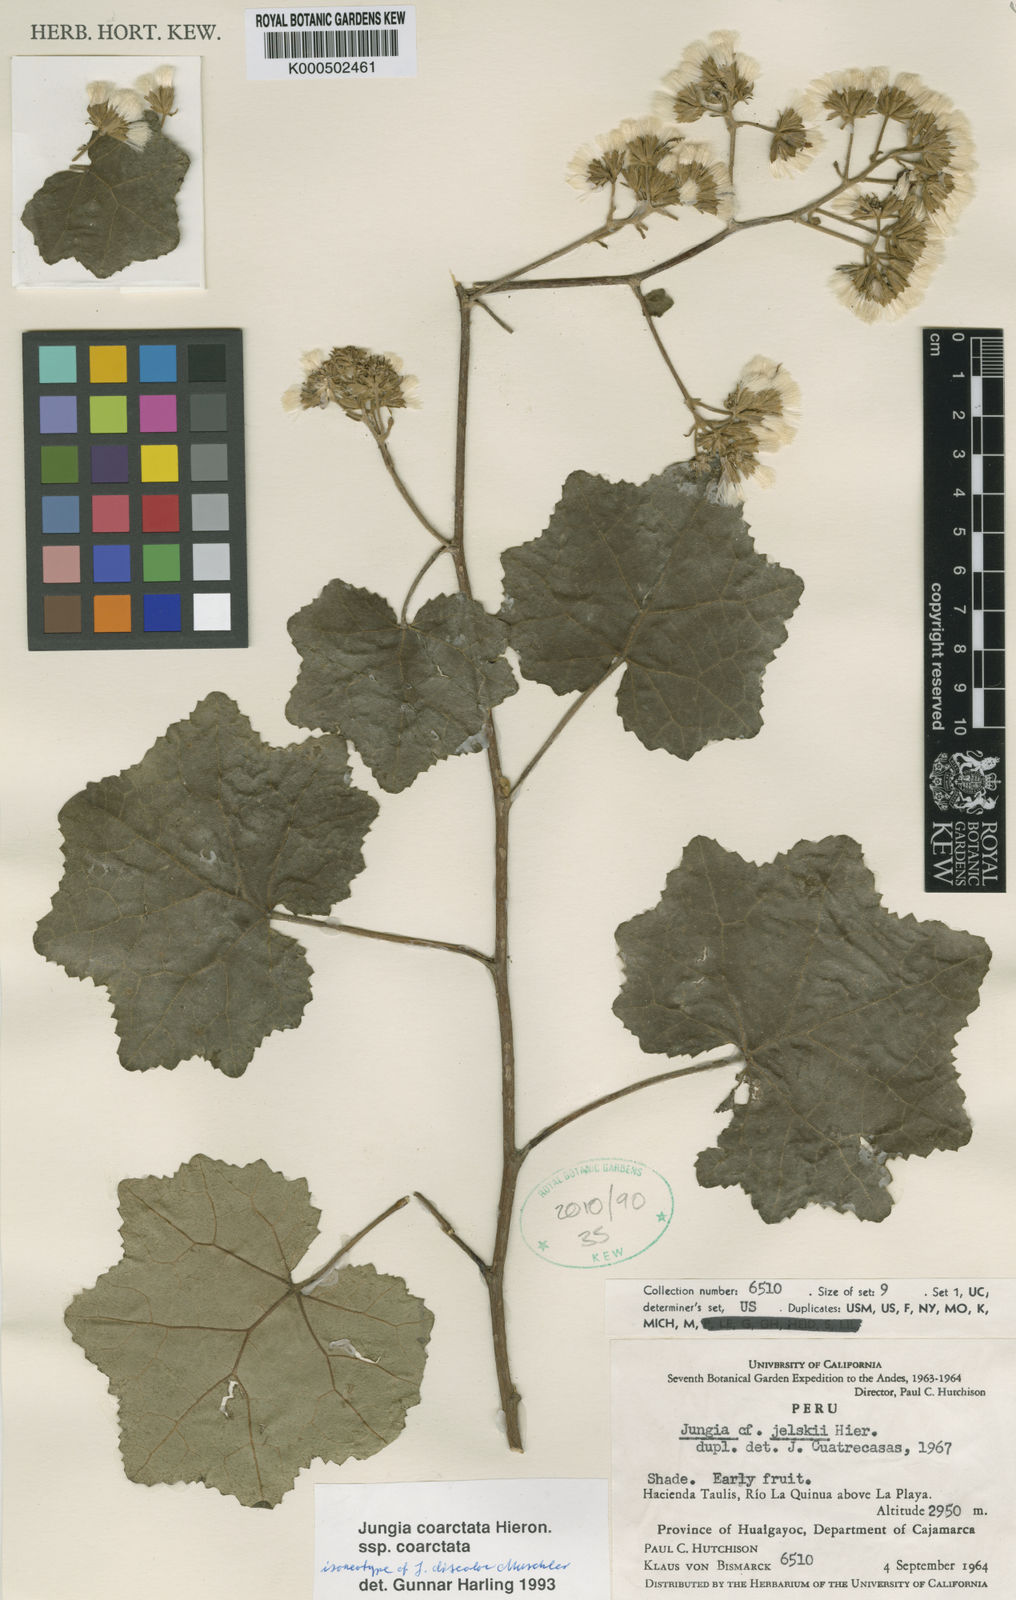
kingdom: Plantae
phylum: Tracheophyta
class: Magnoliopsida
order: Asterales
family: Asteraceae
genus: Jungia
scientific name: Jungia coarctata
